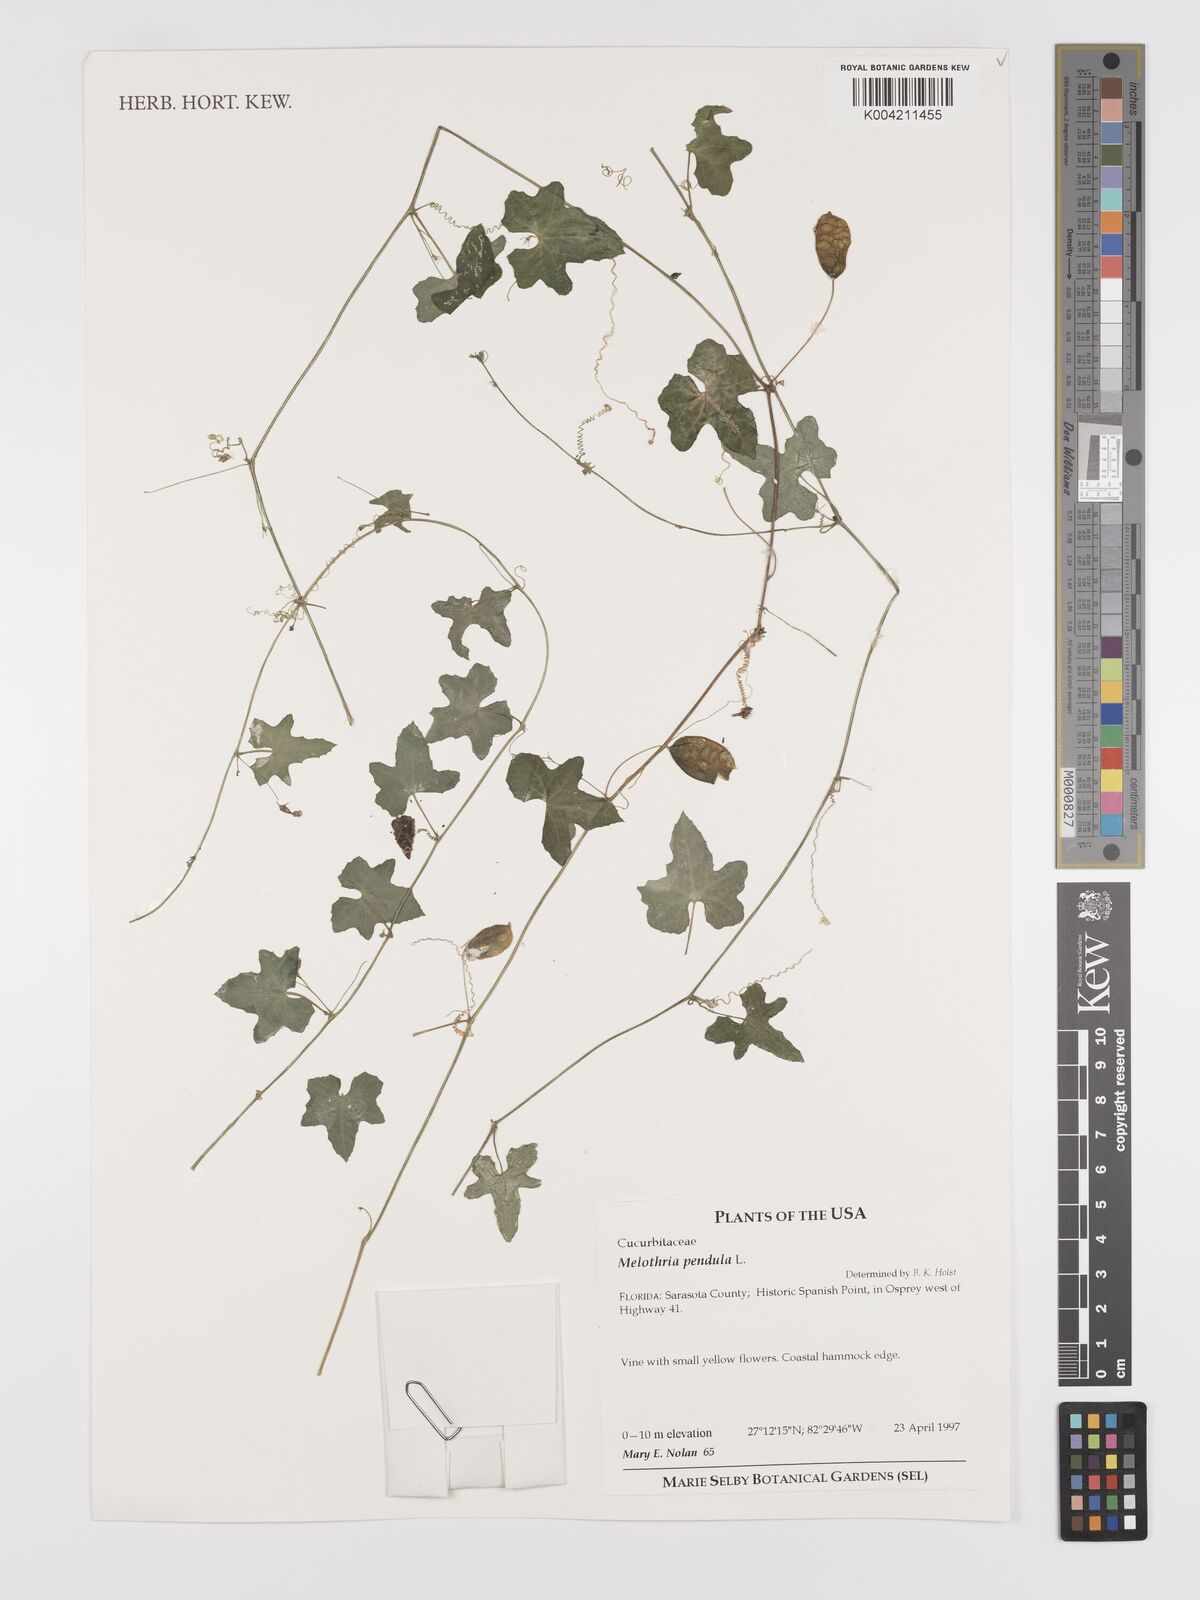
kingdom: Plantae
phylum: Tracheophyta
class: Magnoliopsida
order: Cucurbitales
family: Cucurbitaceae
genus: Melothria
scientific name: Melothria pendula
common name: Creeping-cucumber
